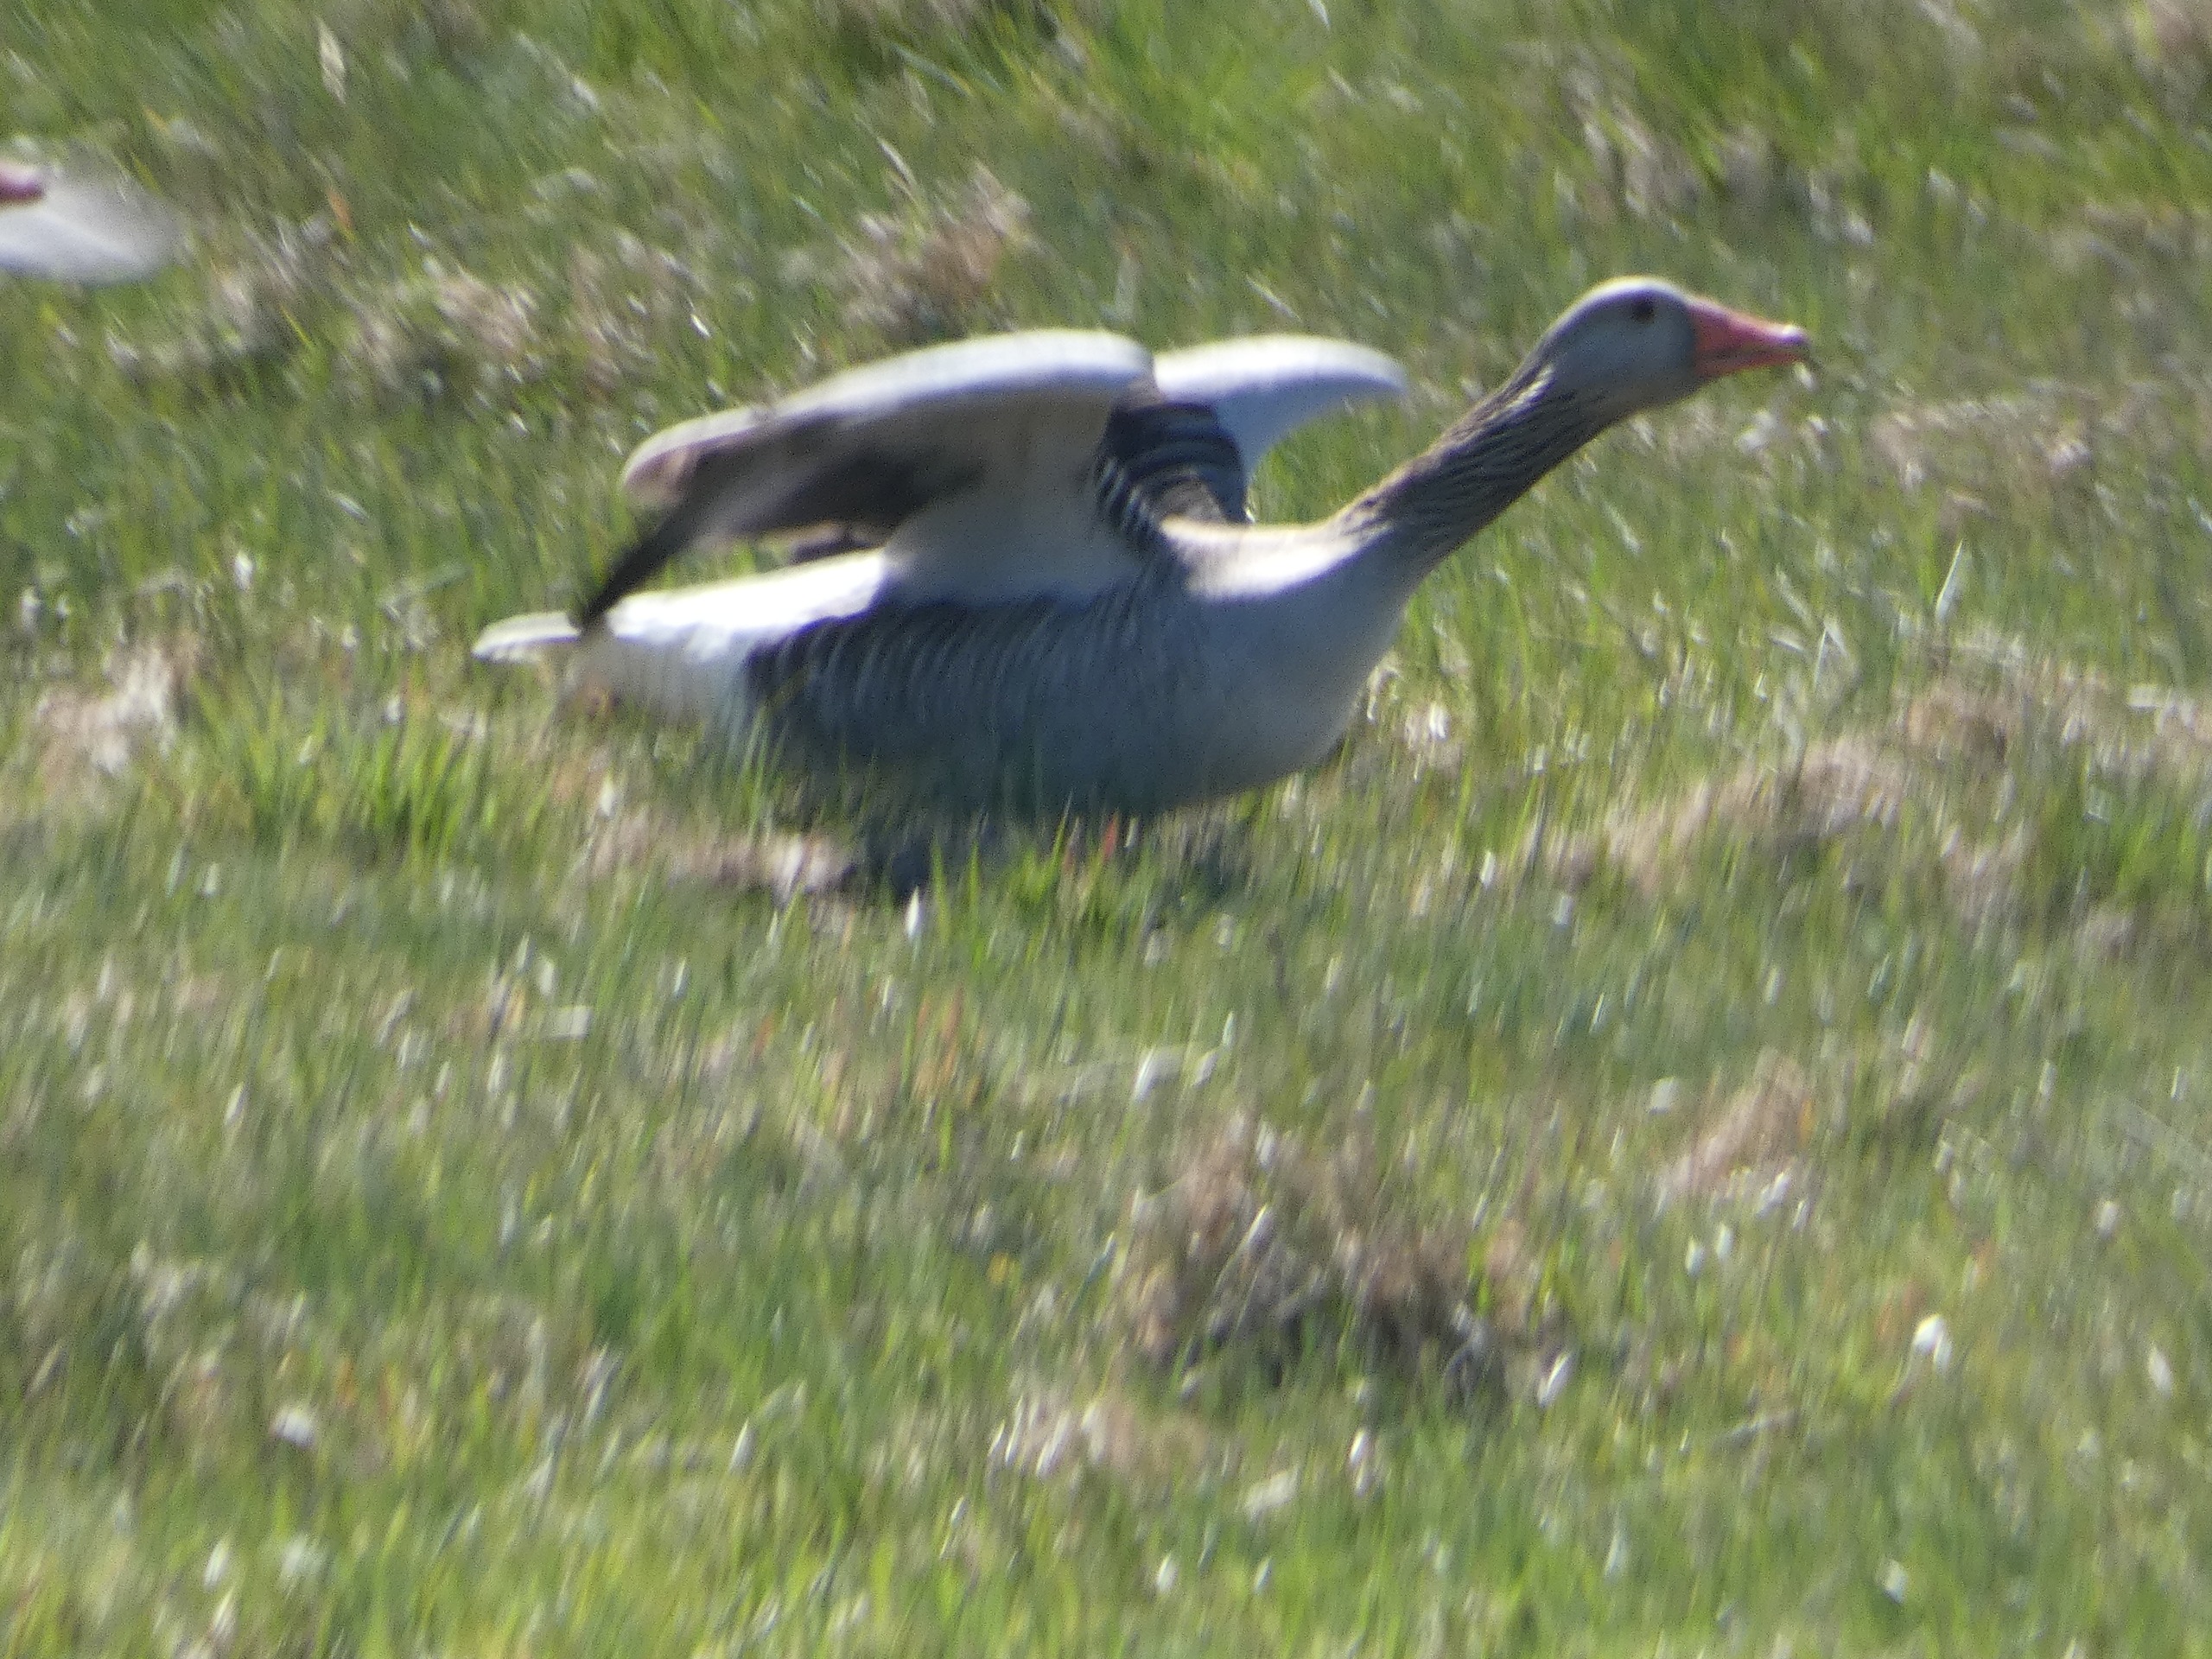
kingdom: Animalia
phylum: Chordata
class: Aves
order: Anseriformes
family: Anatidae
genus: Anser
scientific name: Anser anser
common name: Grågås
